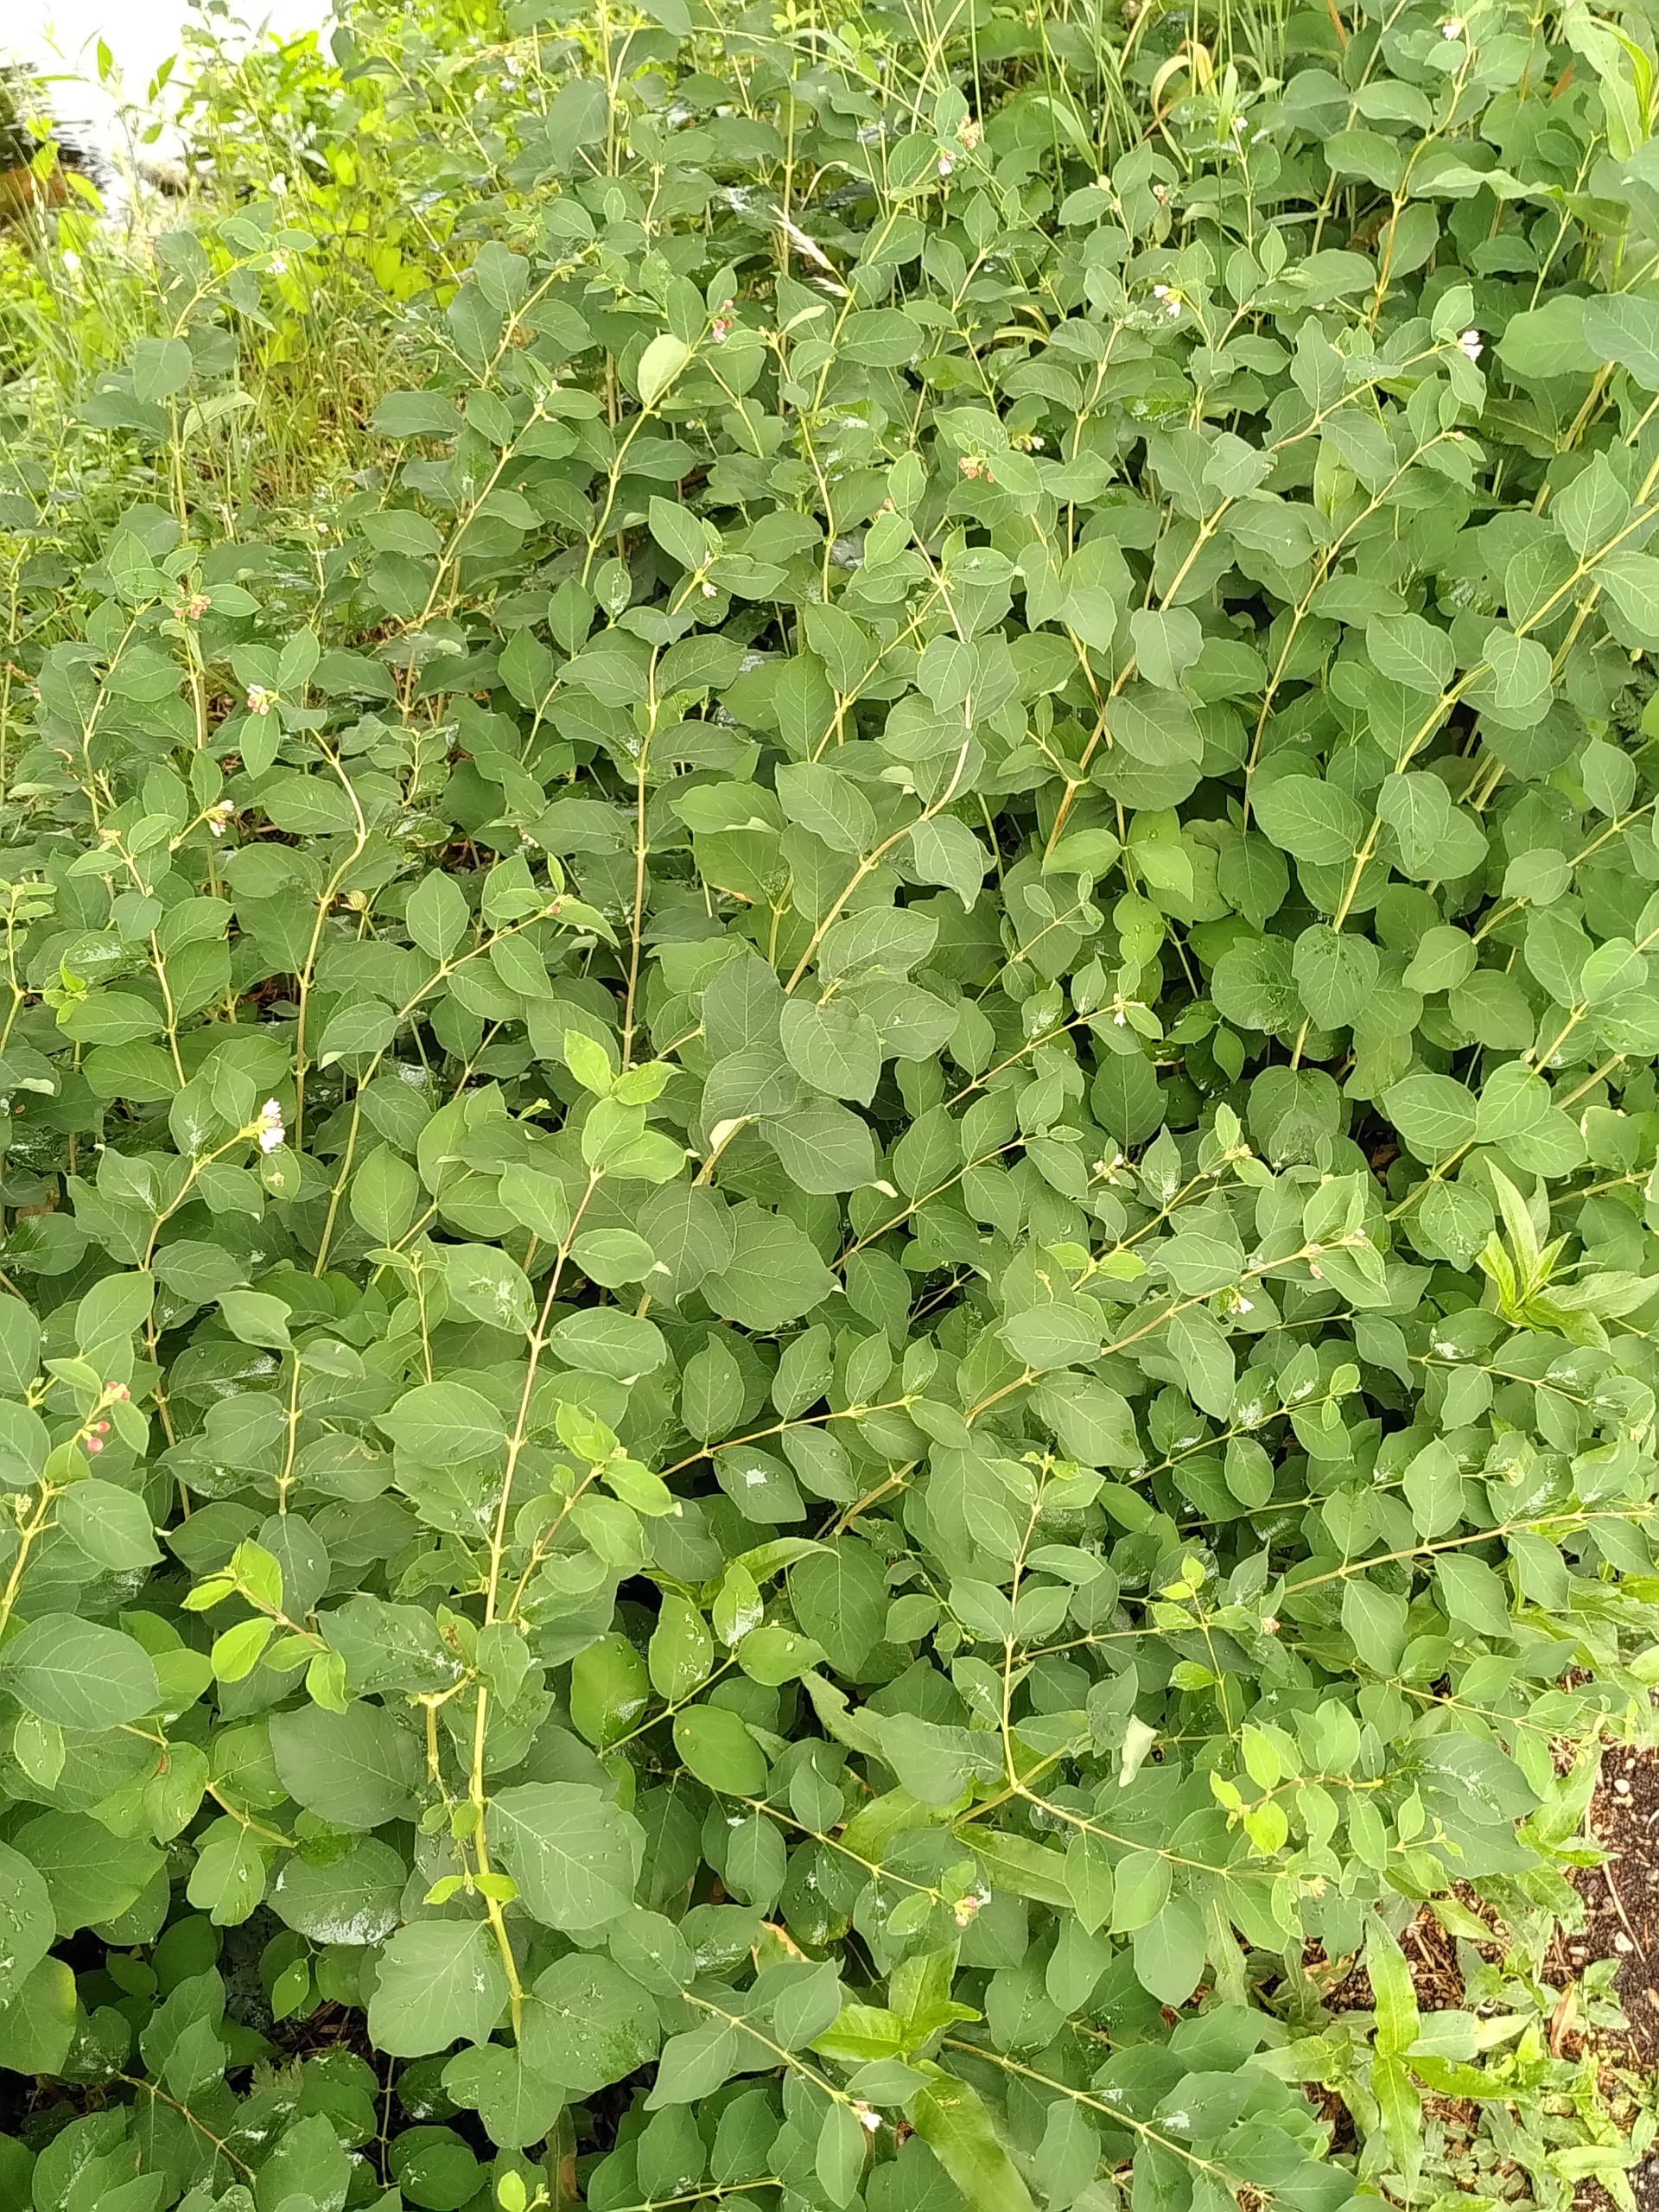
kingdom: Plantae
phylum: Tracheophyta
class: Magnoliopsida
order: Dipsacales
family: Caprifoliaceae
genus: Symphoricarpos
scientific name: Symphoricarpos albus
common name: Almindelig snebær
